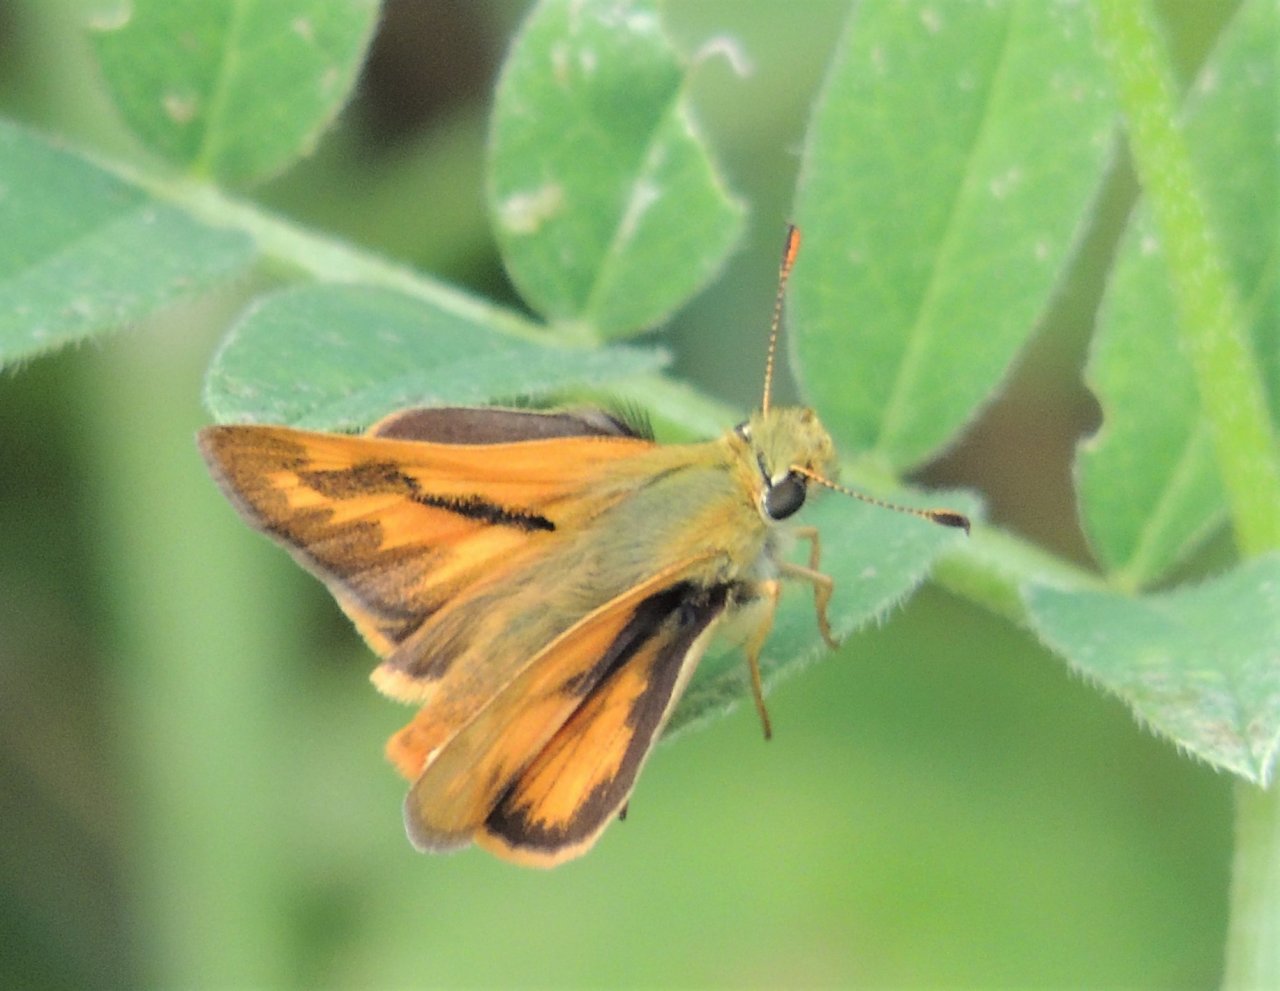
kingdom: Animalia
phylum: Arthropoda
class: Insecta
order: Lepidoptera
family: Hesperiidae
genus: Ochlodes
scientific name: Ochlodes sylvanoides
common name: Woodland Skipper
